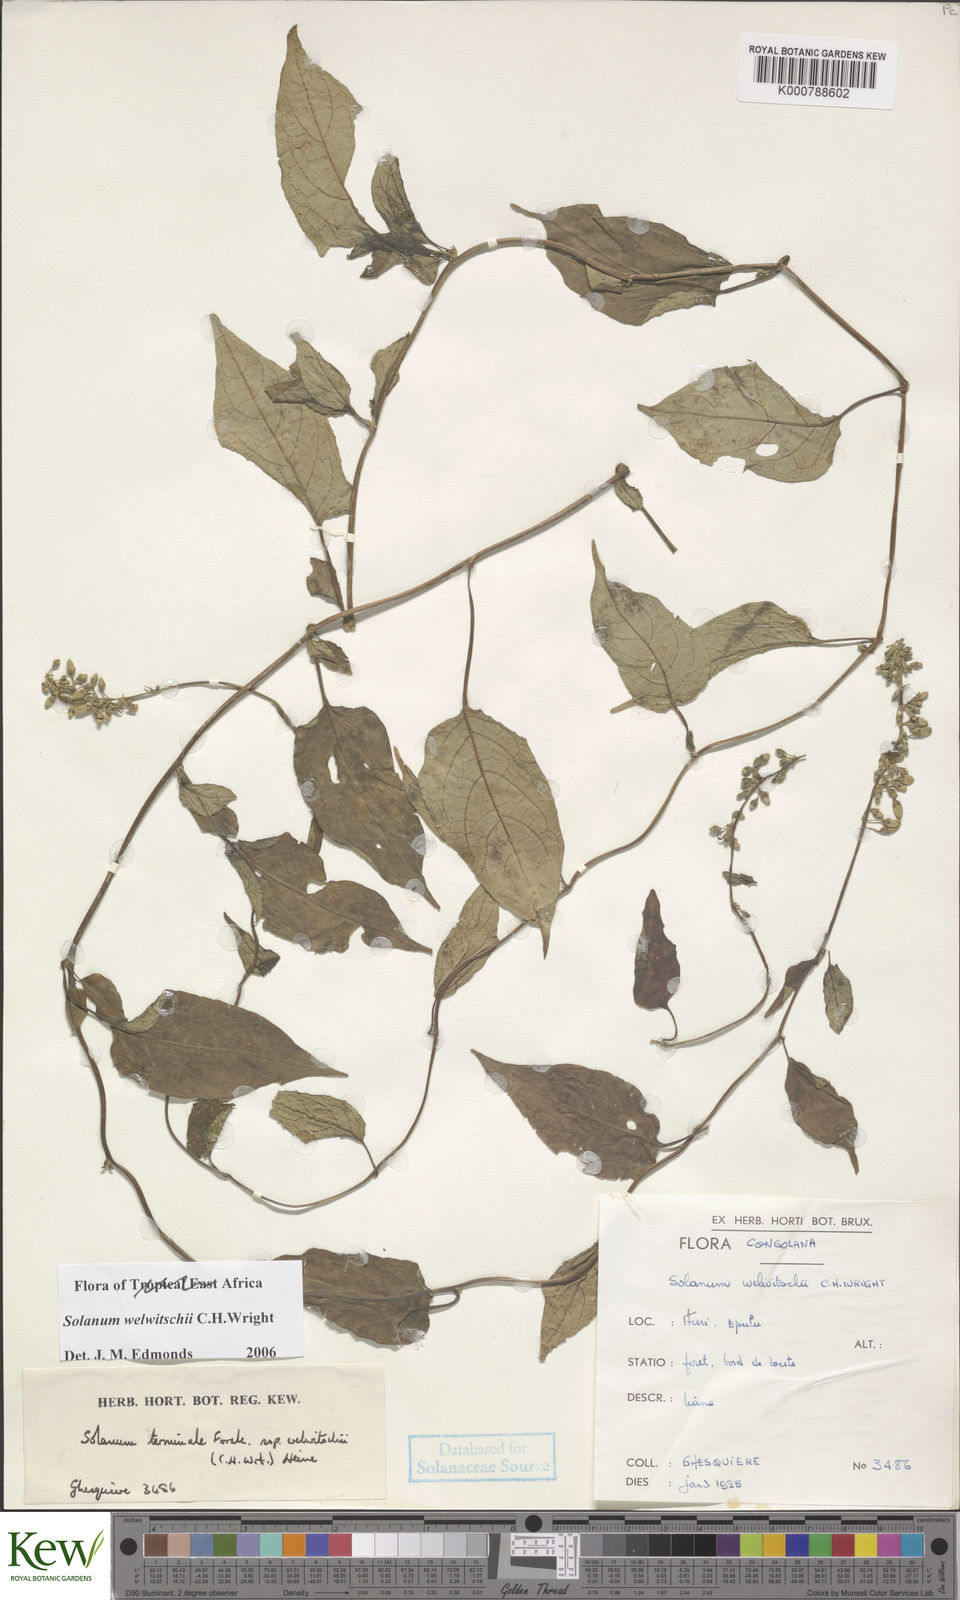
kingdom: Plantae
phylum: Tracheophyta
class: Magnoliopsida
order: Solanales
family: Solanaceae
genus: Solanum
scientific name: Solanum terminale
